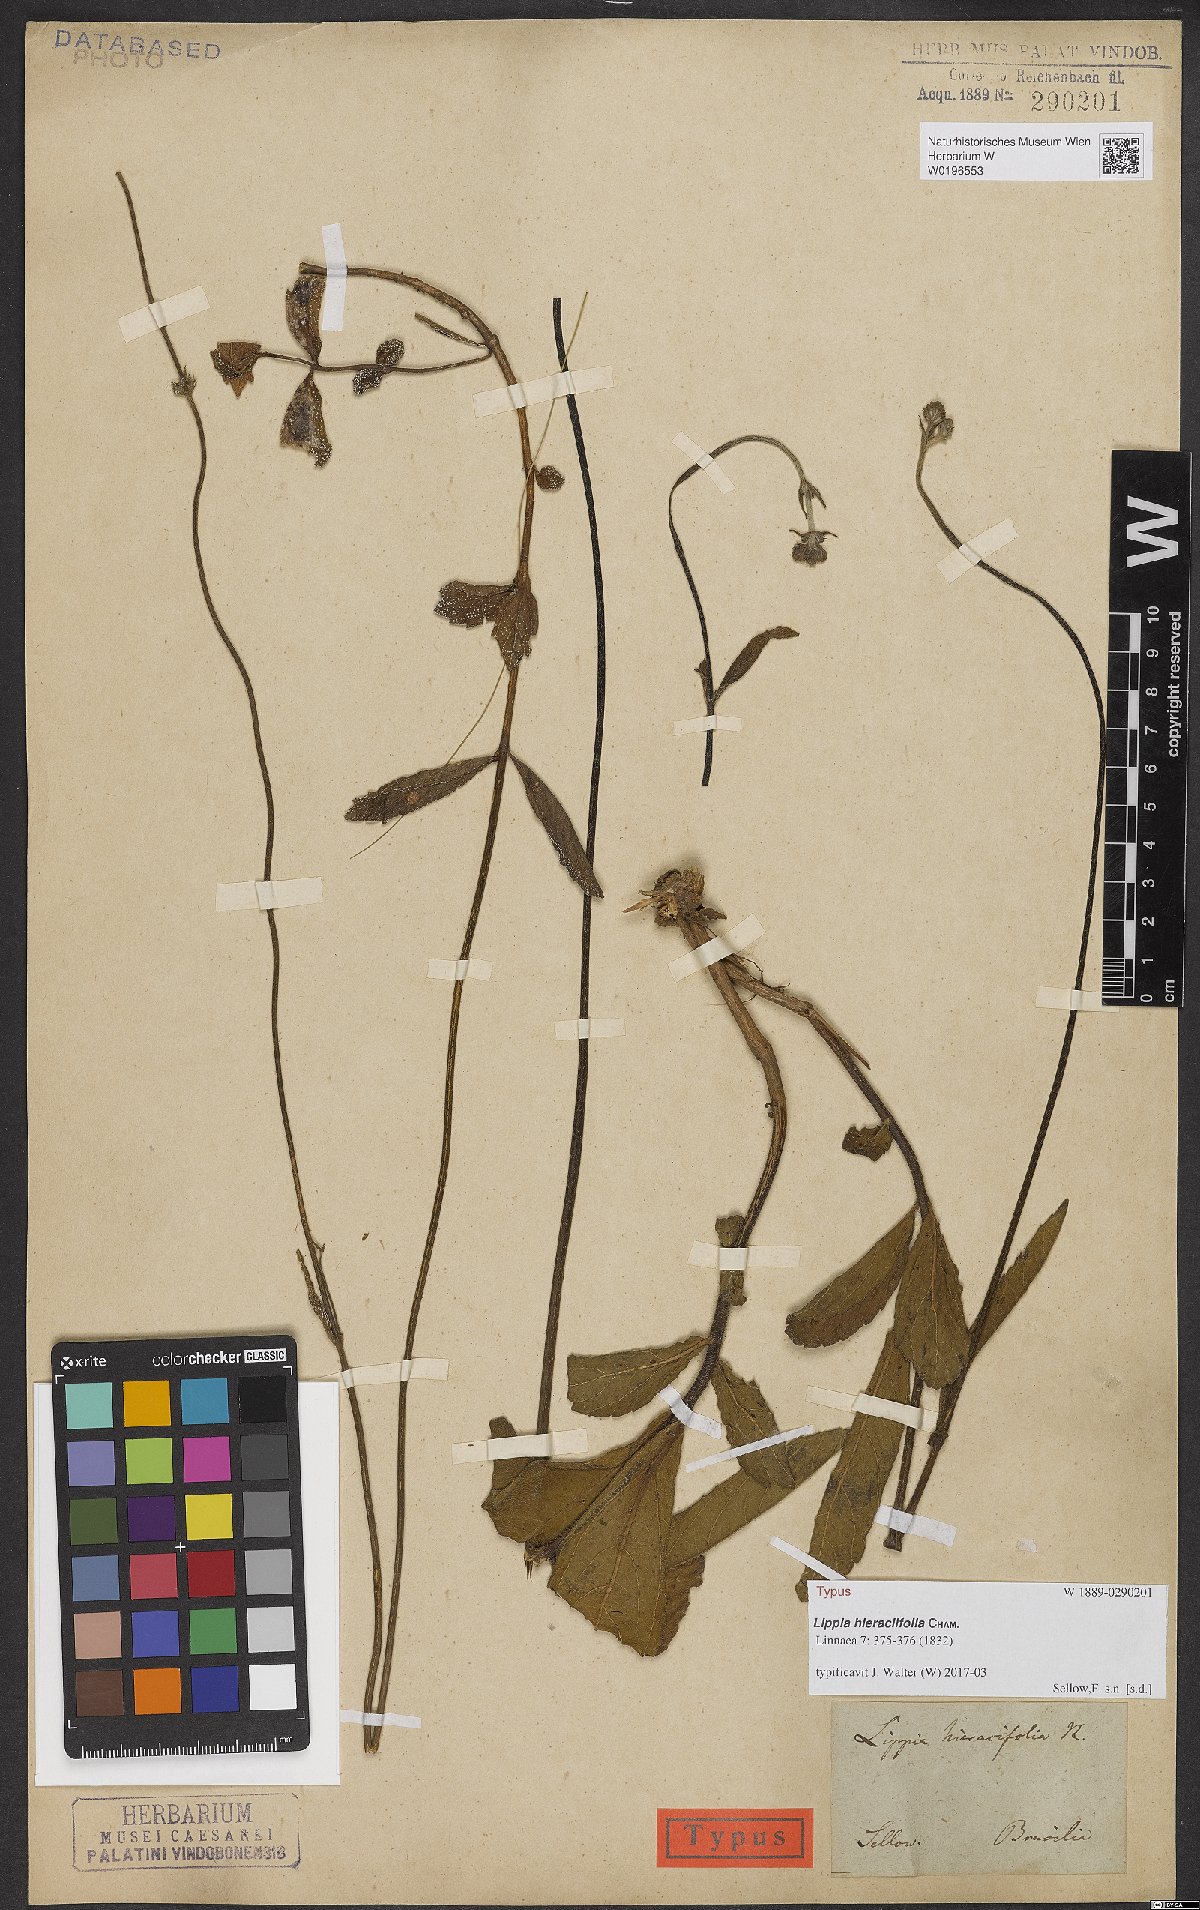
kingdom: Plantae
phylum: Tracheophyta
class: Magnoliopsida
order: Lamiales
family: Verbenaceae
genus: Lippia
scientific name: Lippia hieraciifolia
